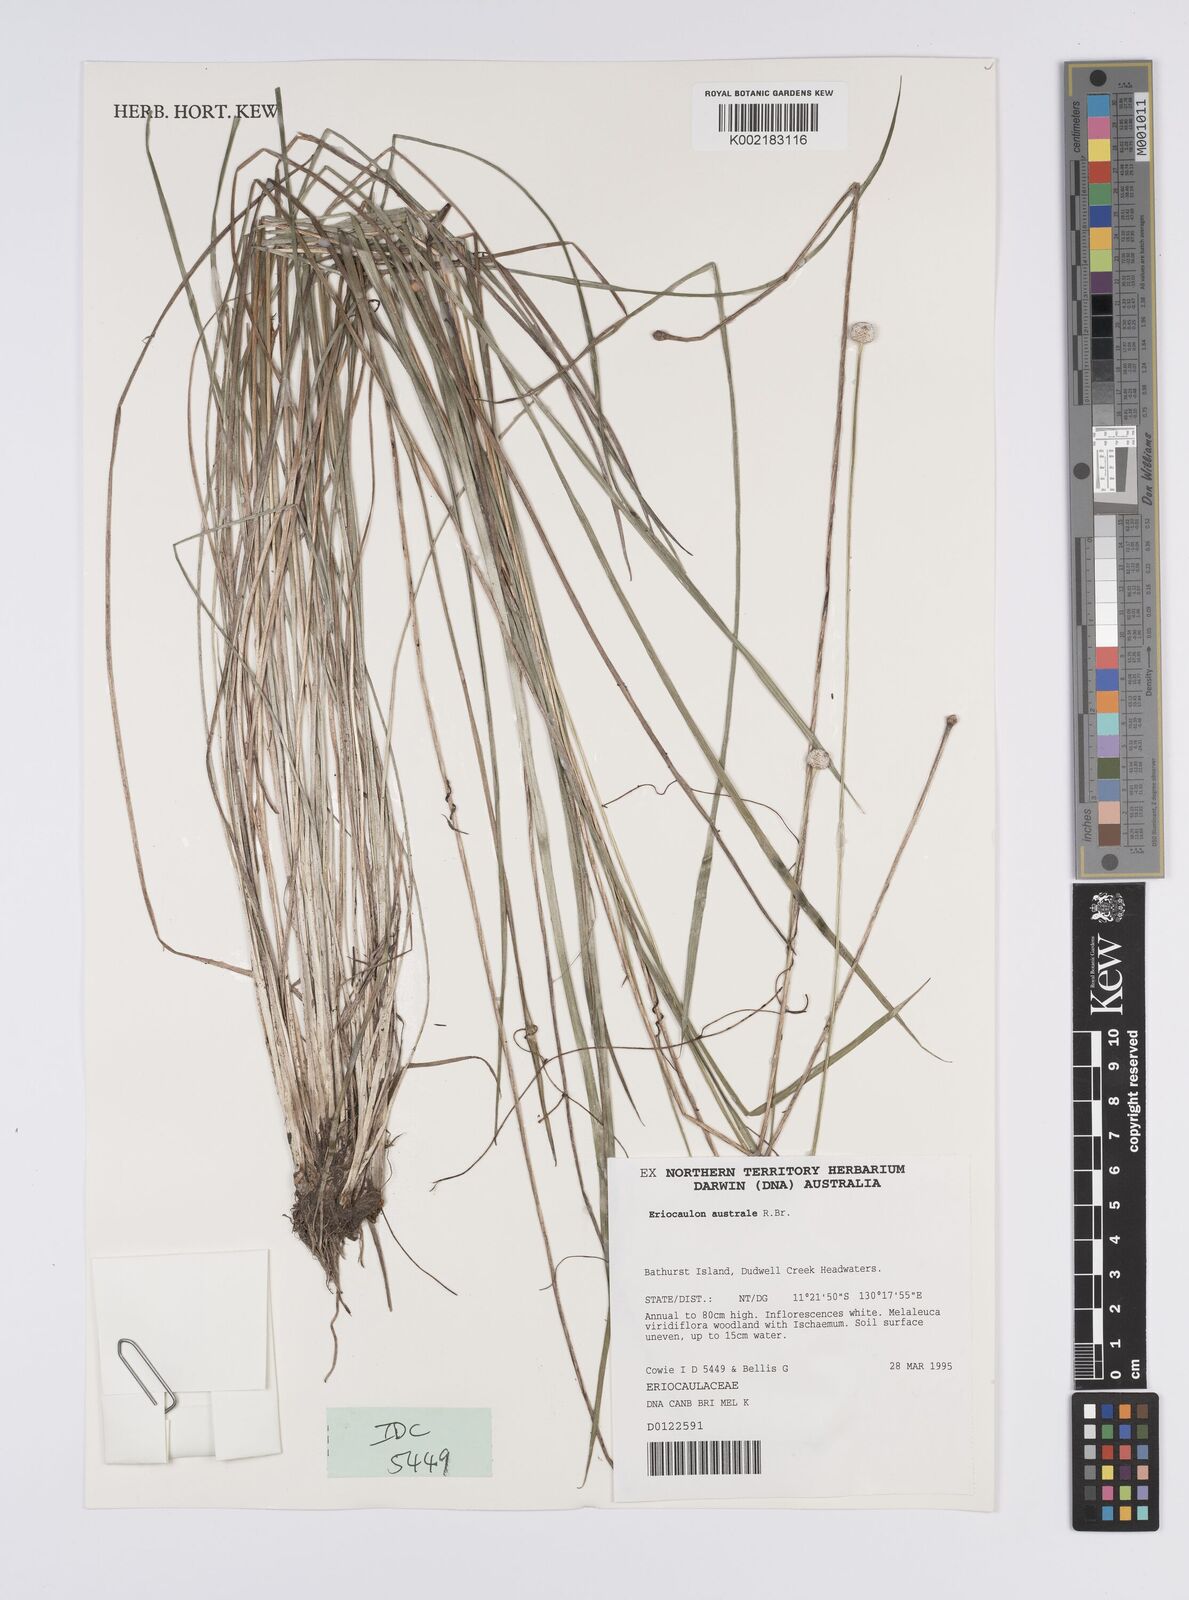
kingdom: Plantae
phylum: Tracheophyta
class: Liliopsida
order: Poales
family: Eriocaulaceae
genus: Eriocaulon
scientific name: Eriocaulon australe
